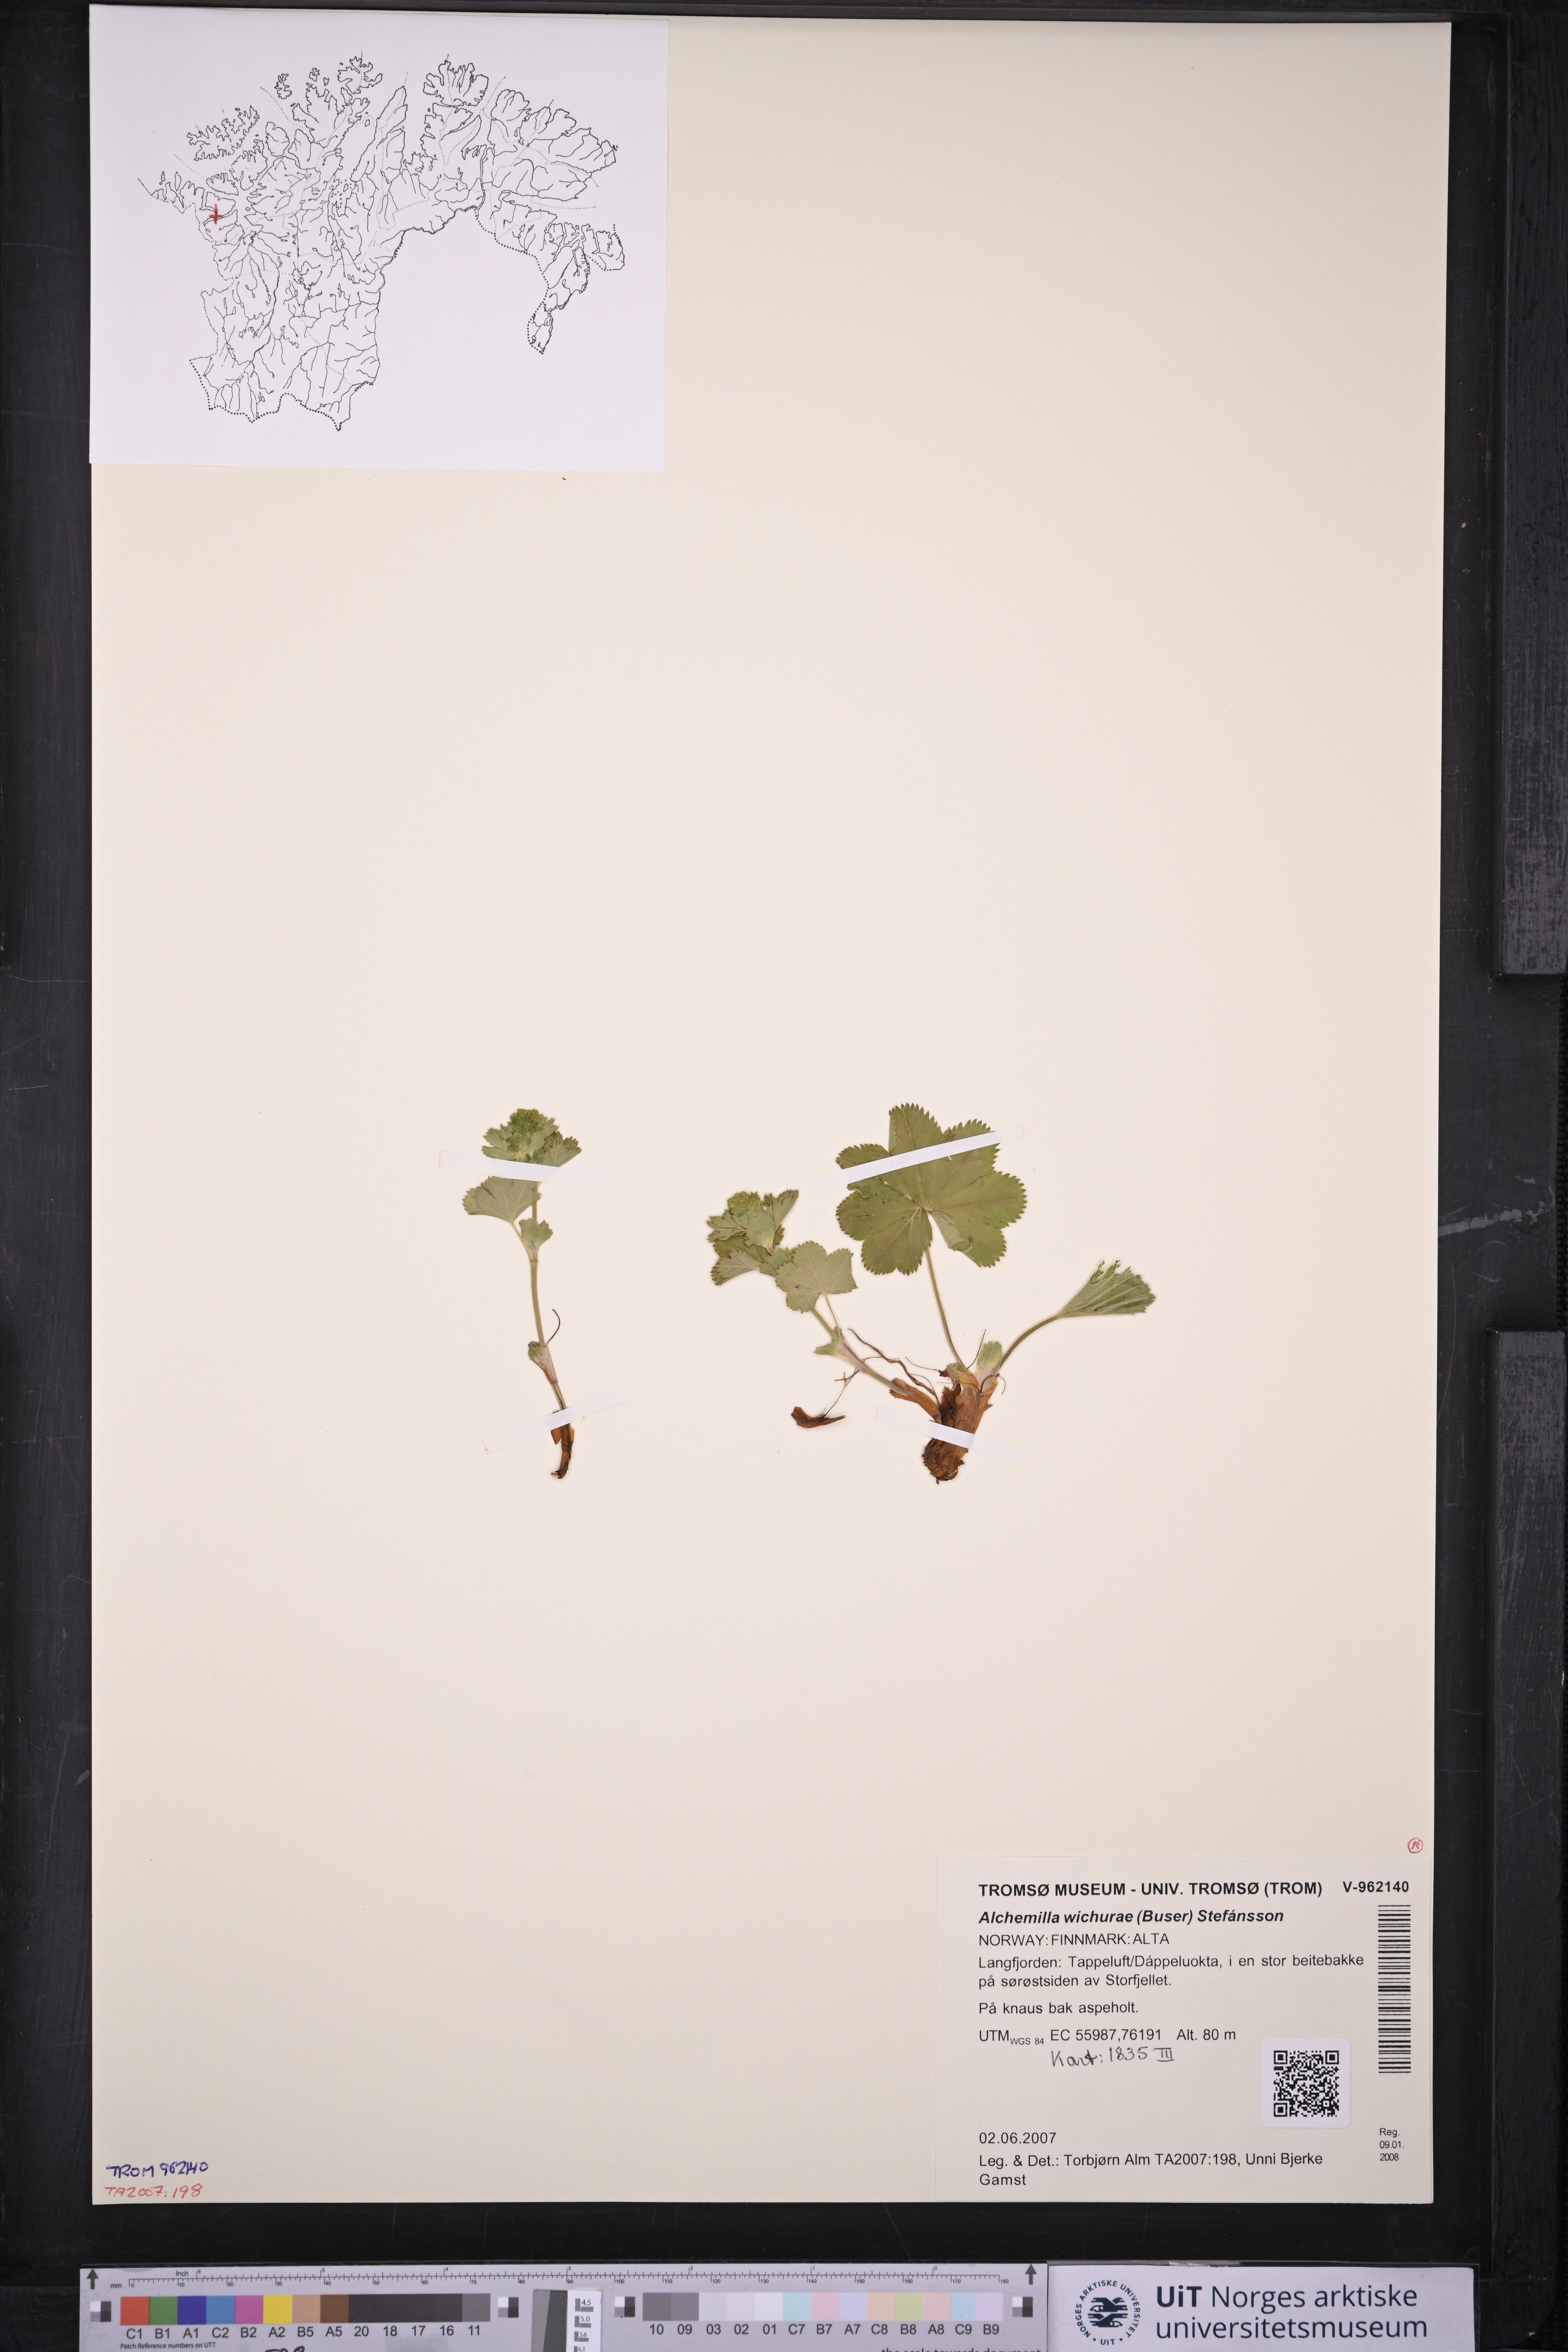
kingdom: Plantae
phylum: Tracheophyta
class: Magnoliopsida
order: Rosales
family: Rosaceae
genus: Alchemilla
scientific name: Alchemilla wichurae
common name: Rock lady's mantle
